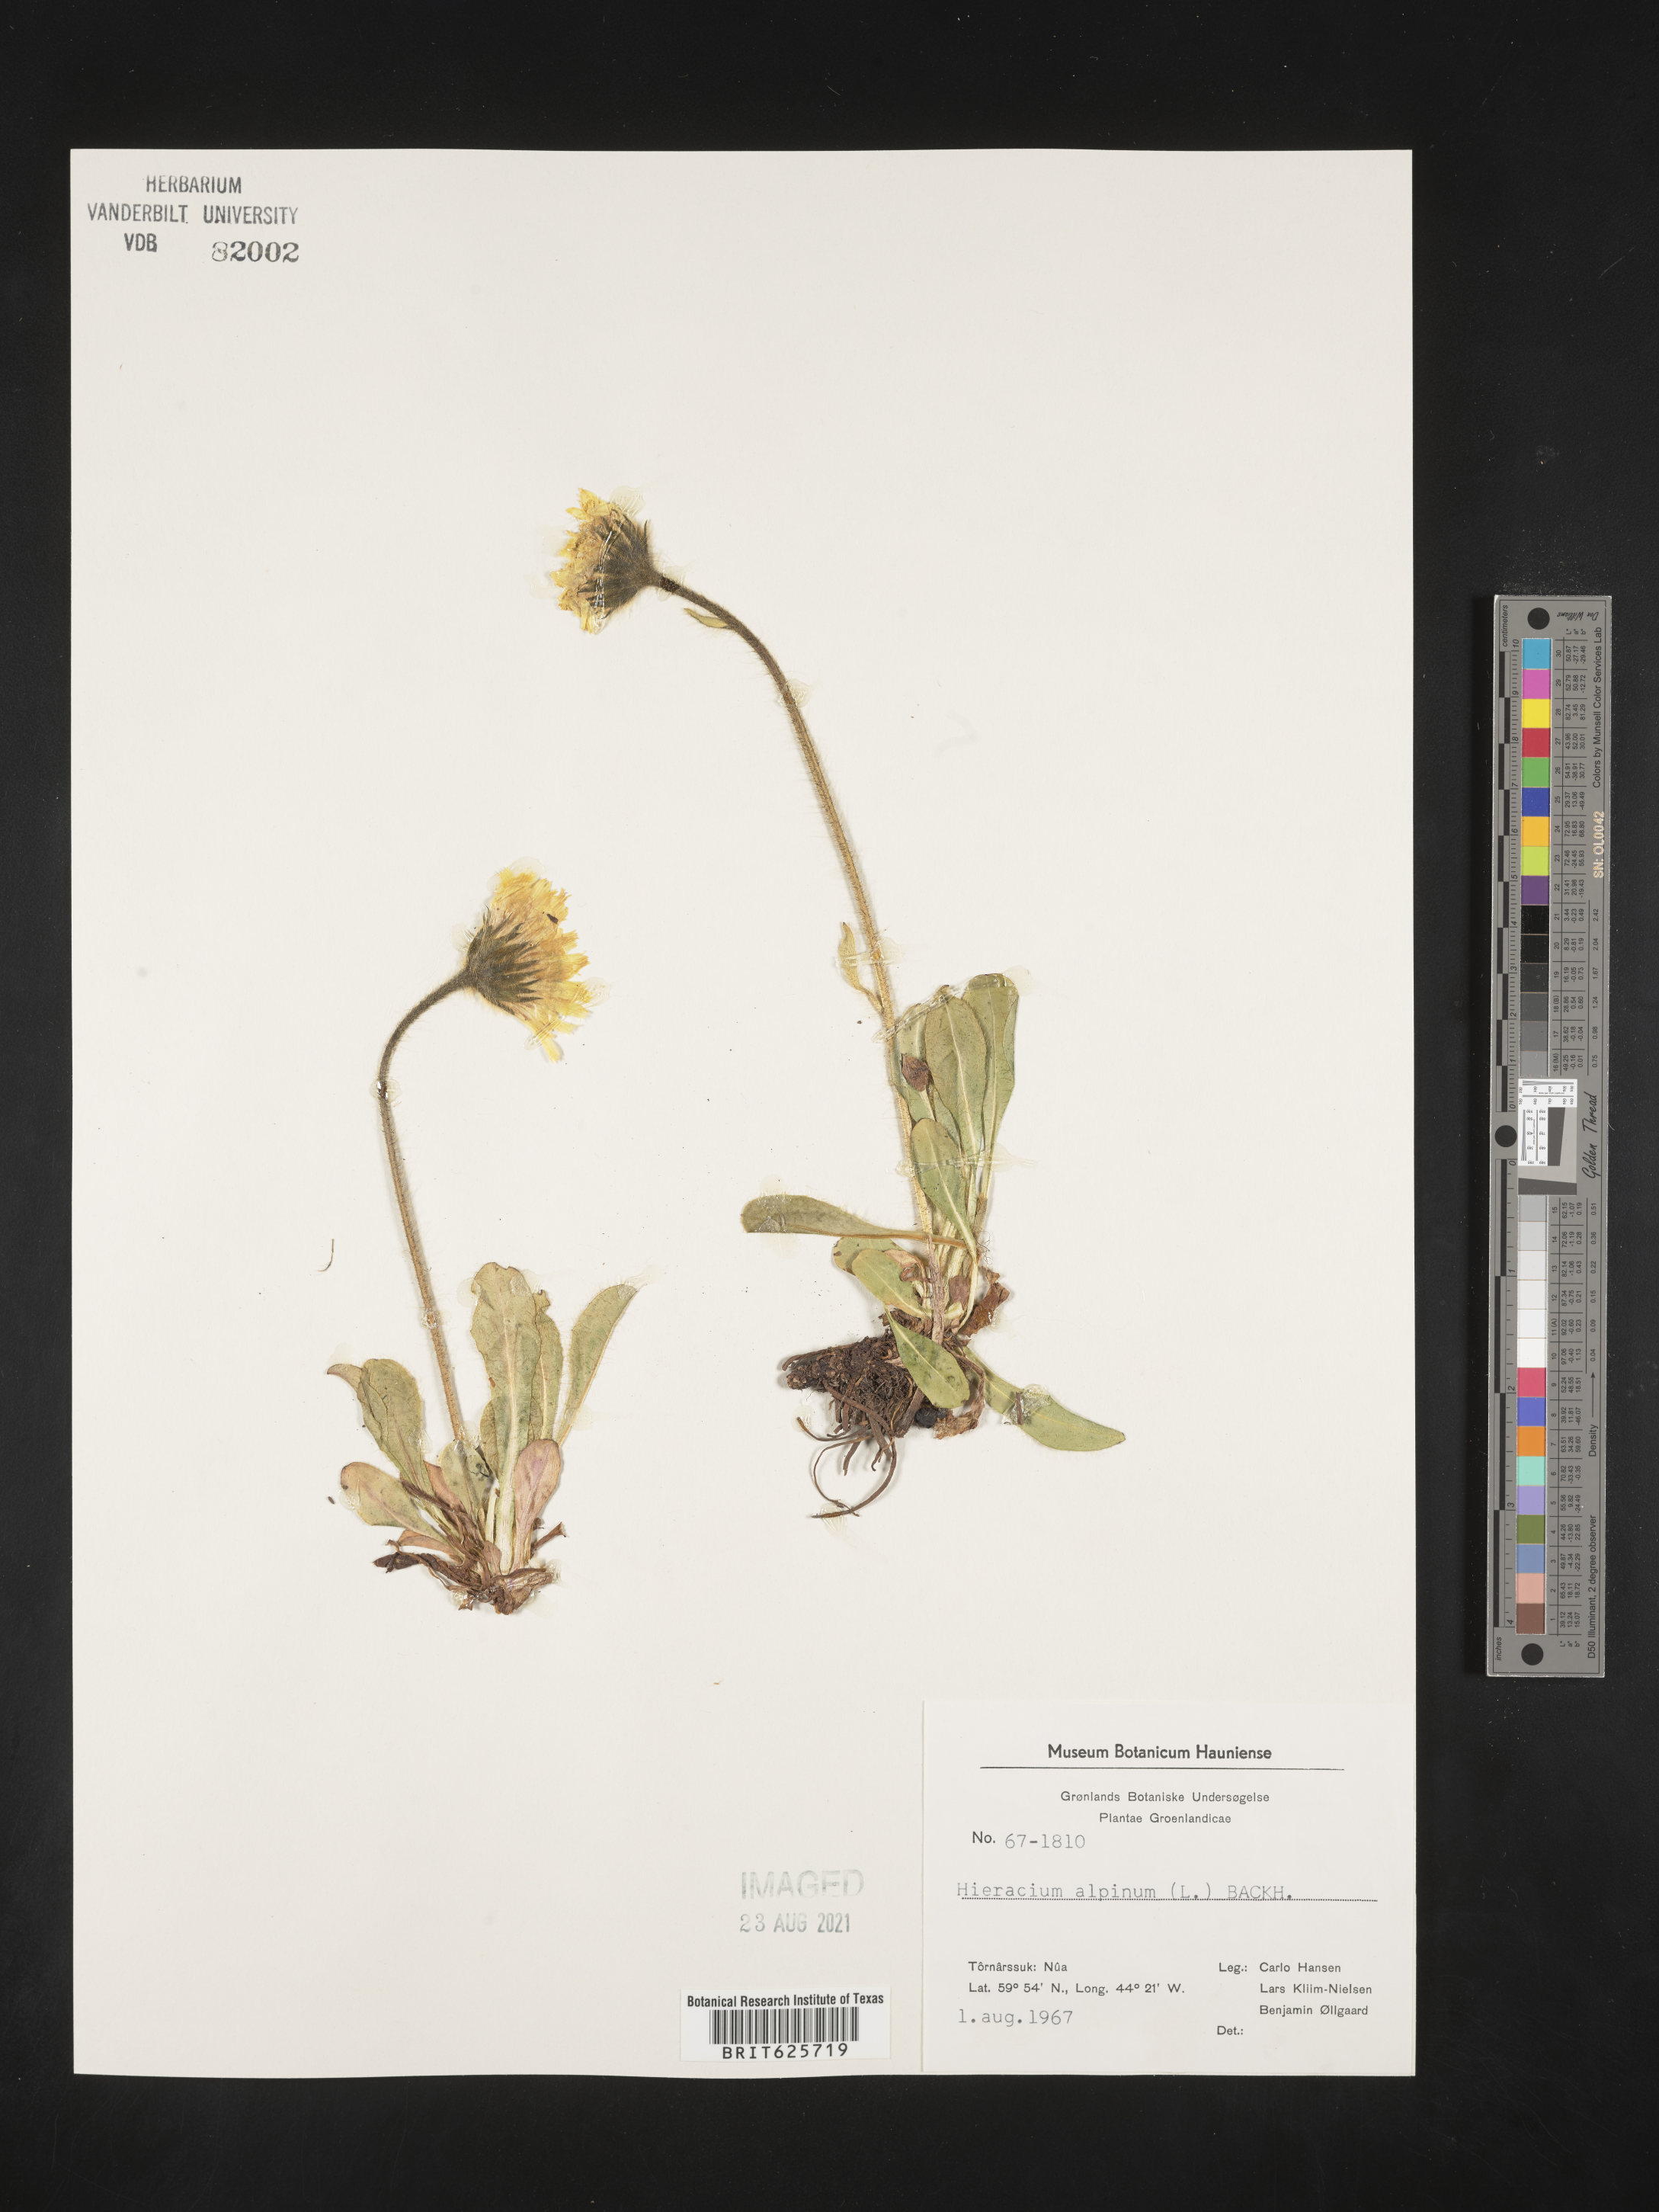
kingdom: Plantae
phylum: Tracheophyta
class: Magnoliopsida
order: Asterales
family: Asteraceae
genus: Hieracium
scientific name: Hieracium alpinum
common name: Alpine hawkweed
